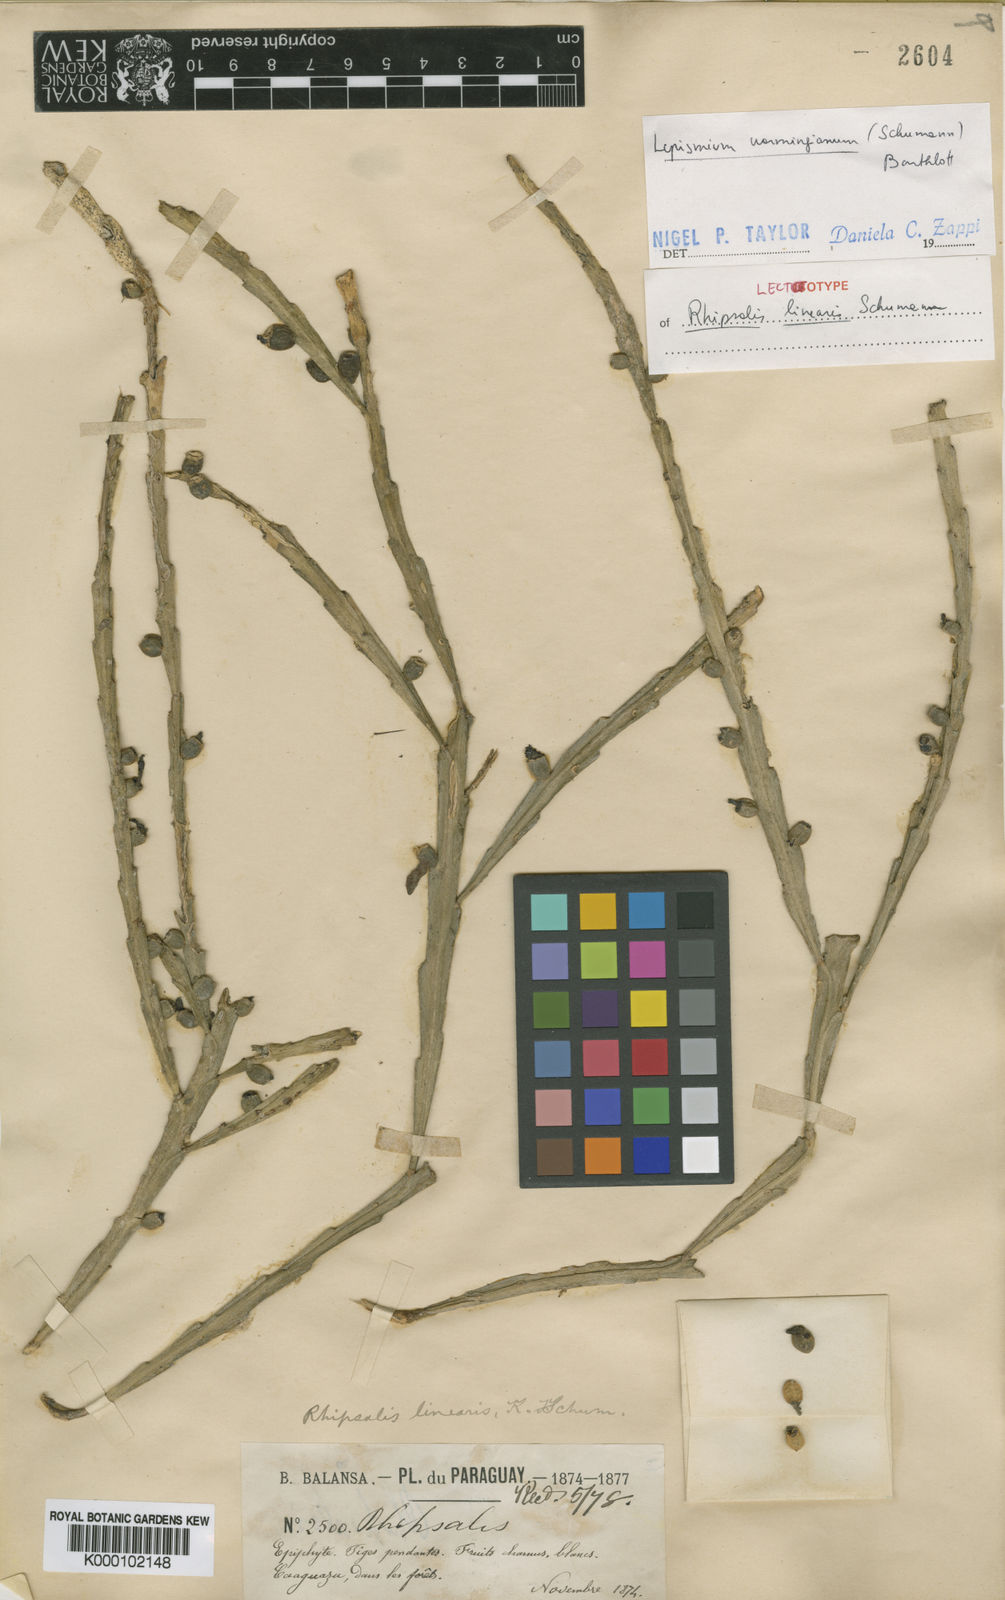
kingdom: Plantae
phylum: Tracheophyta
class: Magnoliopsida
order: Caryophyllales
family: Cactaceae
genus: Lepismium
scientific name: Lepismium warmingianum
